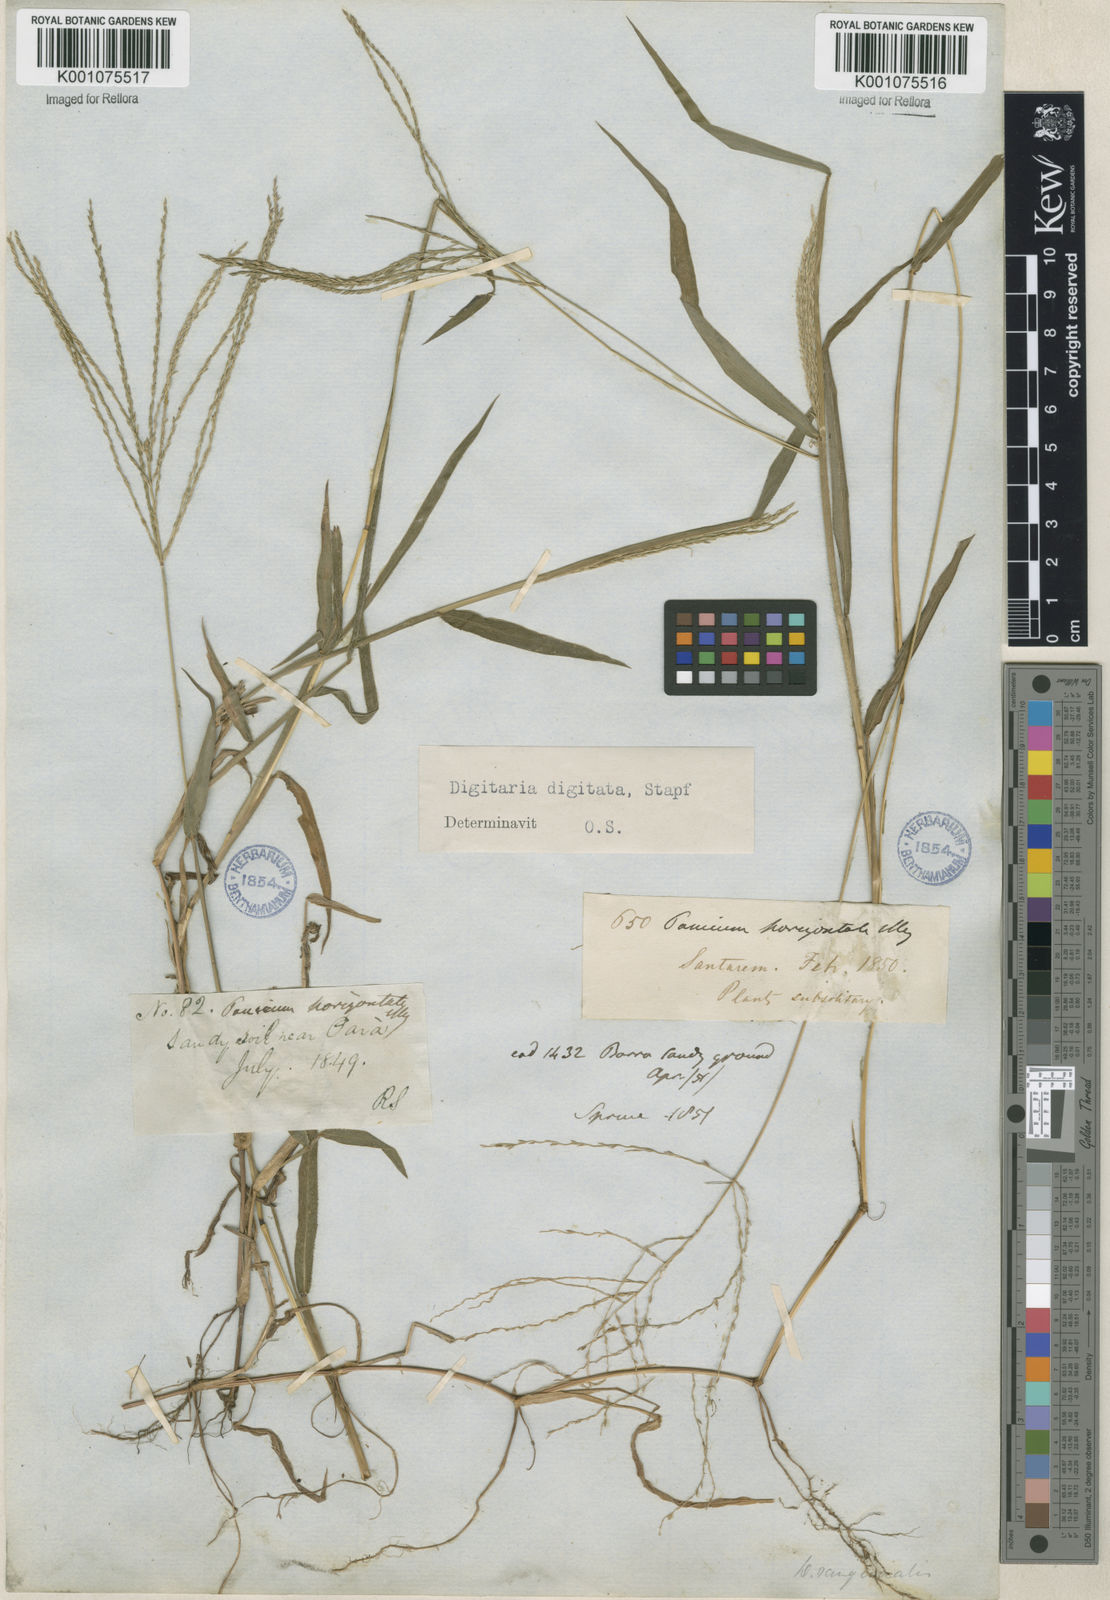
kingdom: Plantae
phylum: Tracheophyta
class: Liliopsida
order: Poales
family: Poaceae
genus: Digitaria
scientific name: Digitaria horizontalis
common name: Jamaican crabgrass
